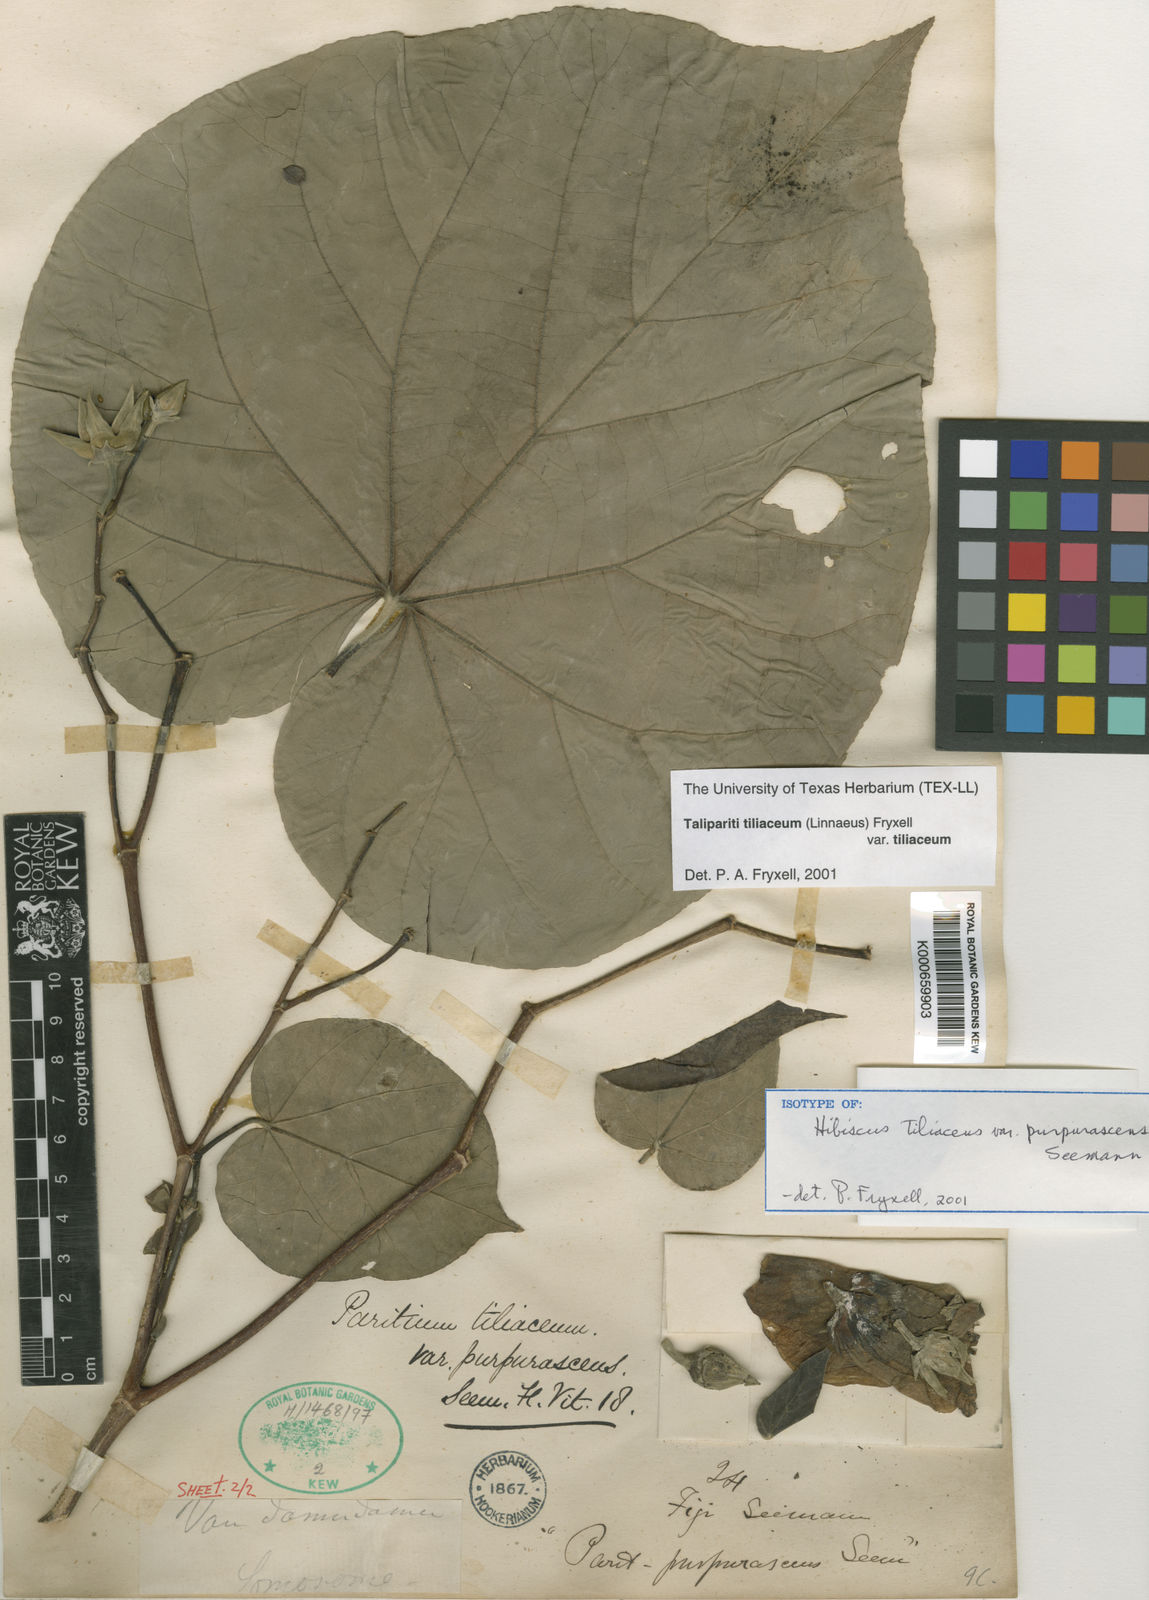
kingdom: Plantae
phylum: Tracheophyta
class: Magnoliopsida
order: Malvales
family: Malvaceae
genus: Talipariti
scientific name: Talipariti tiliaceum
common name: Sea hibiscus
